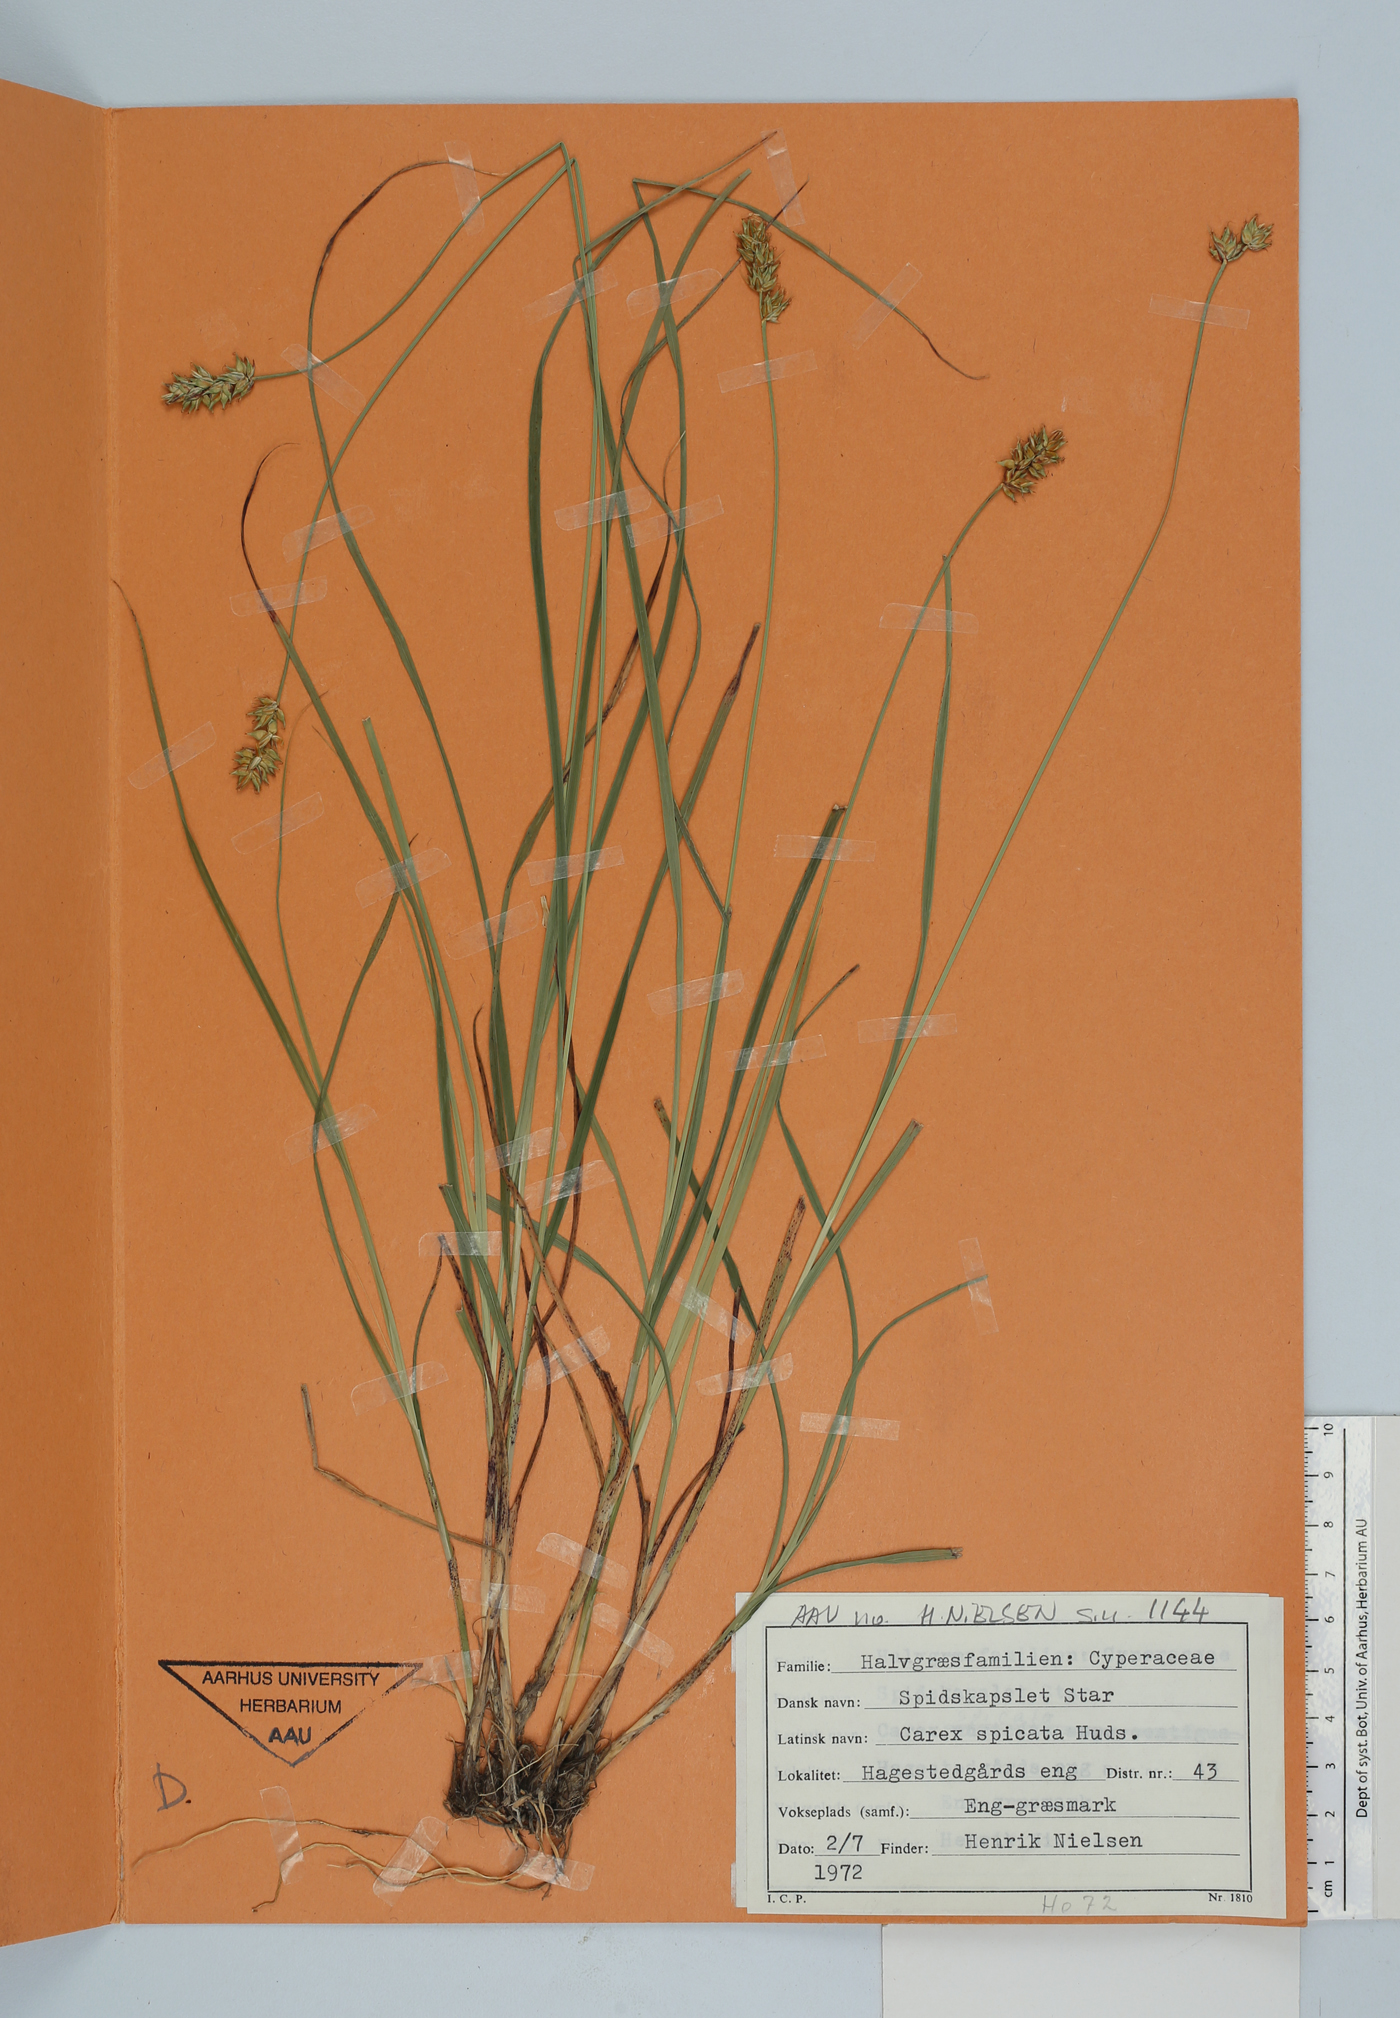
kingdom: Plantae
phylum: Tracheophyta
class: Liliopsida
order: Poales
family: Cyperaceae
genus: Carex
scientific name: Carex spicata
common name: Spiked sedge
